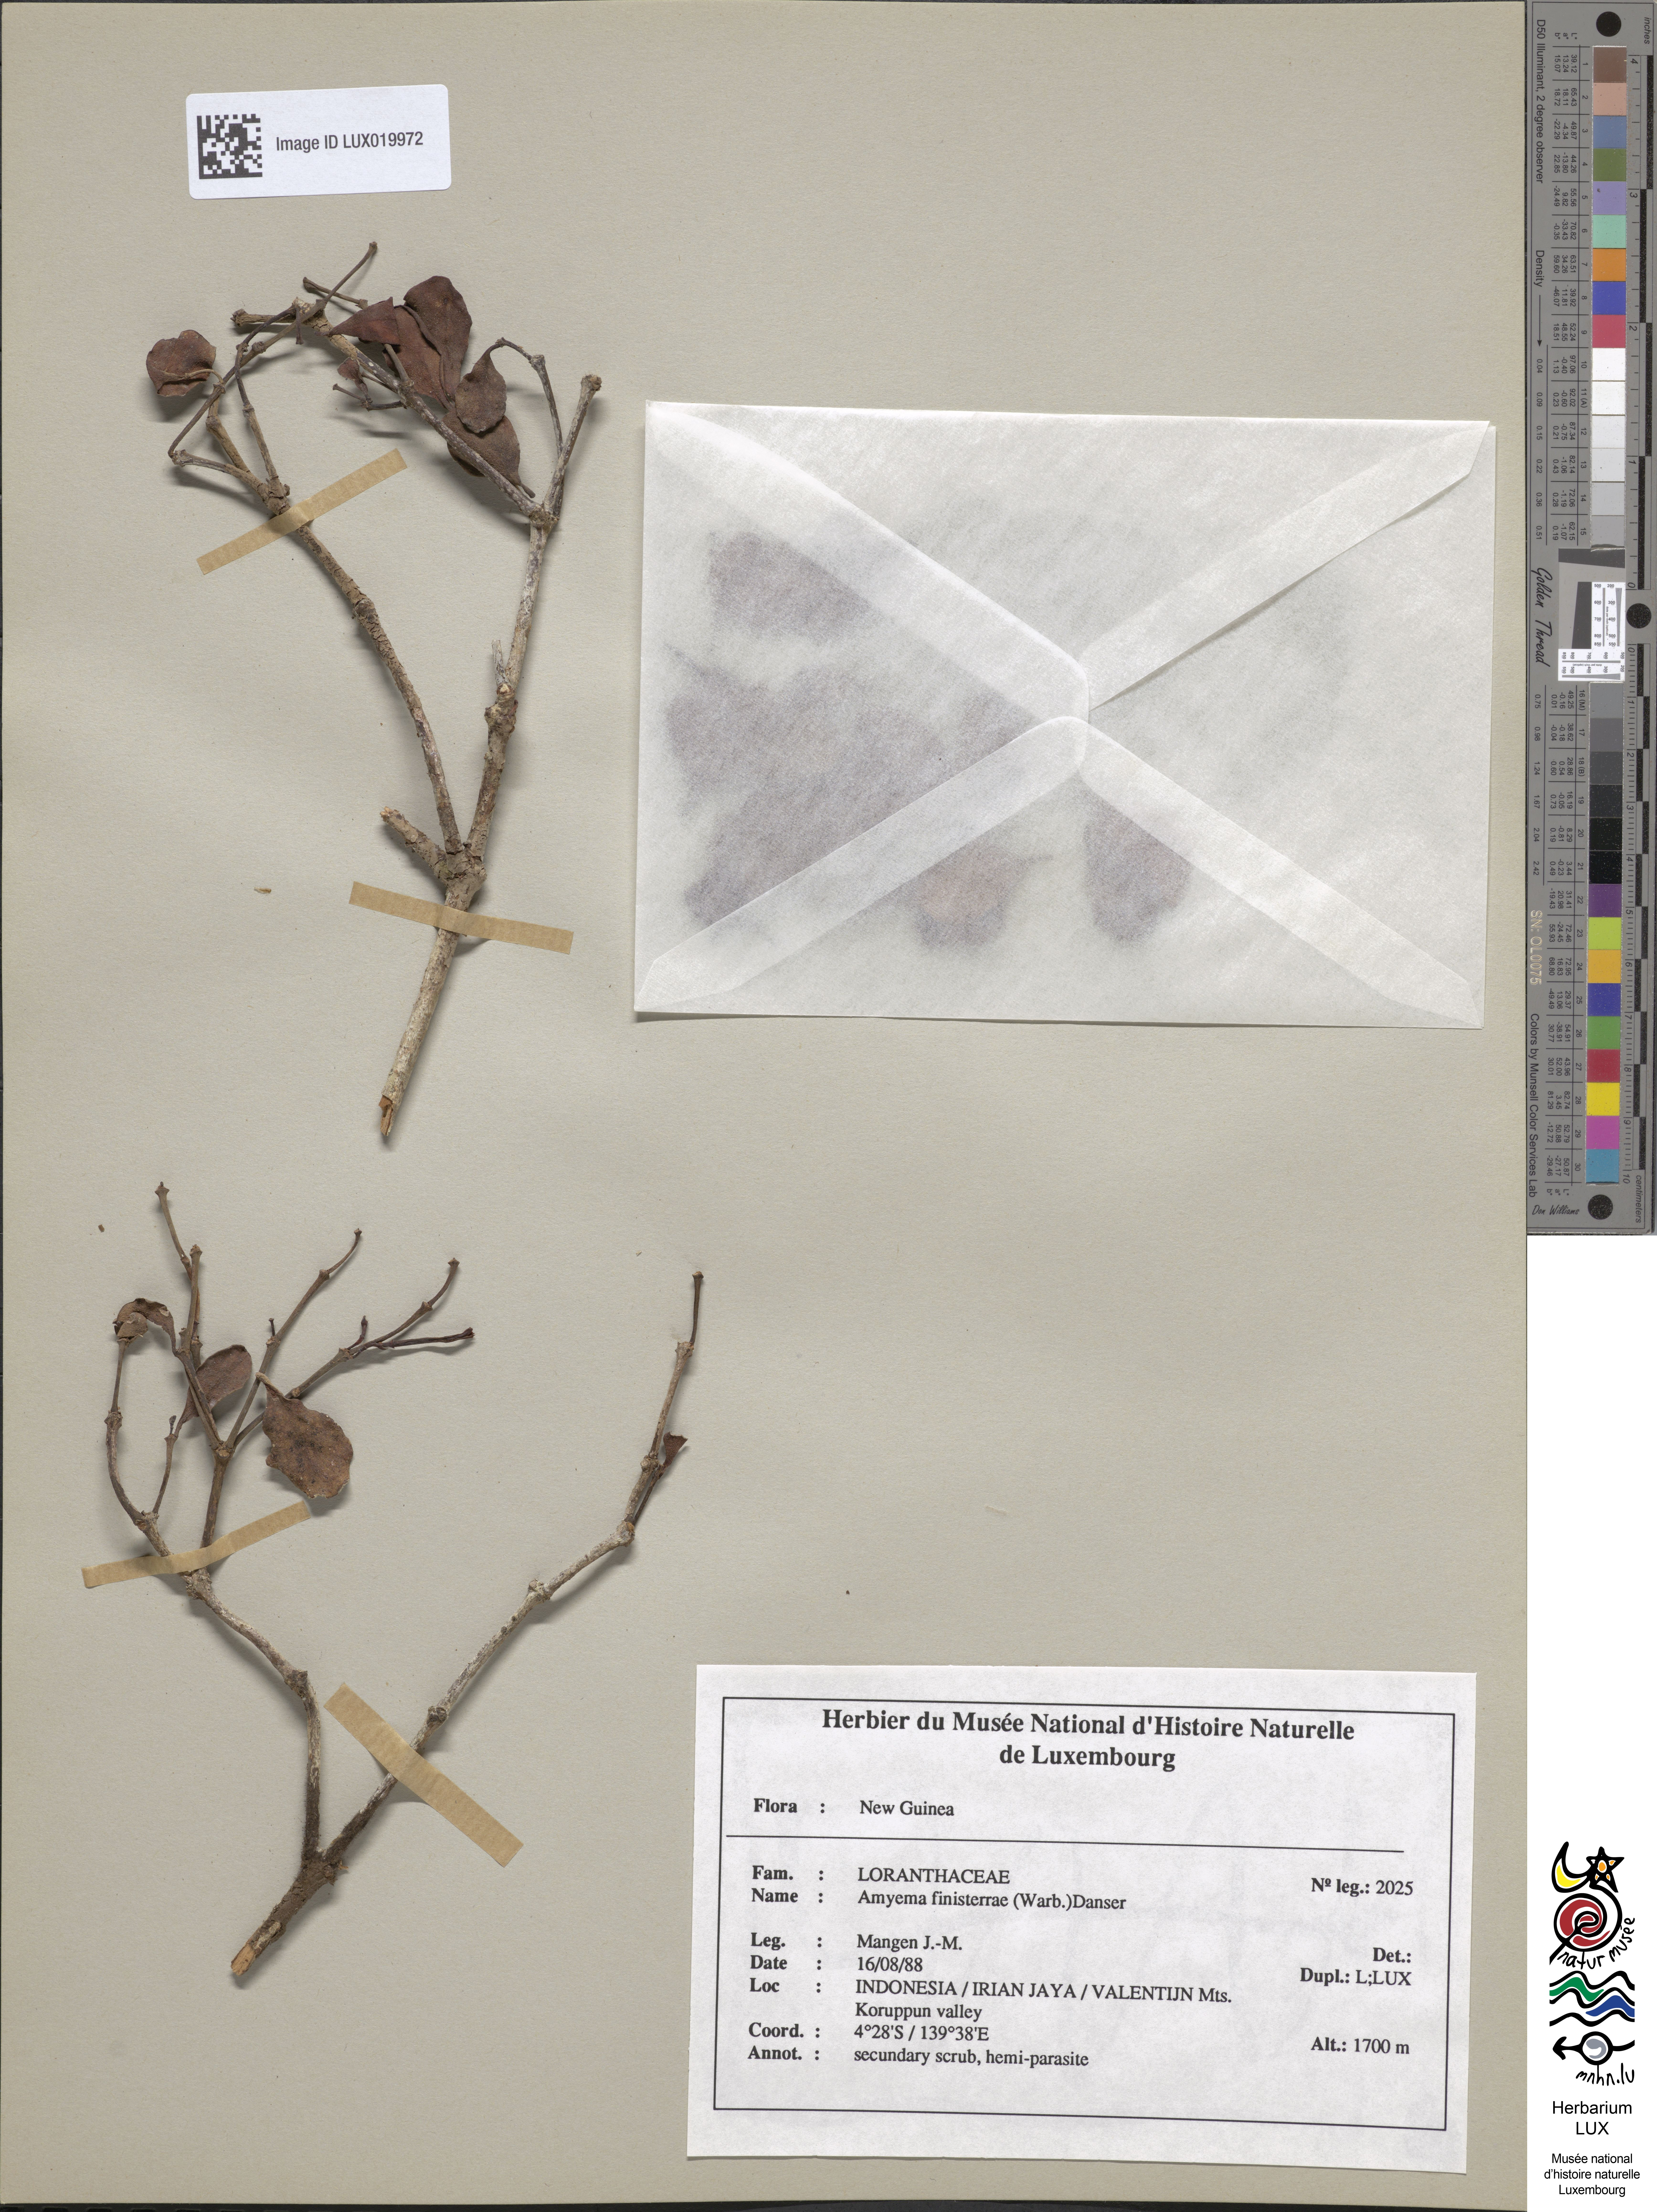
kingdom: Plantae
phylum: Tracheophyta
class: Magnoliopsida
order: Santalales
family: Loranthaceae
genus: Amyema
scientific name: Amyema finisterrae
